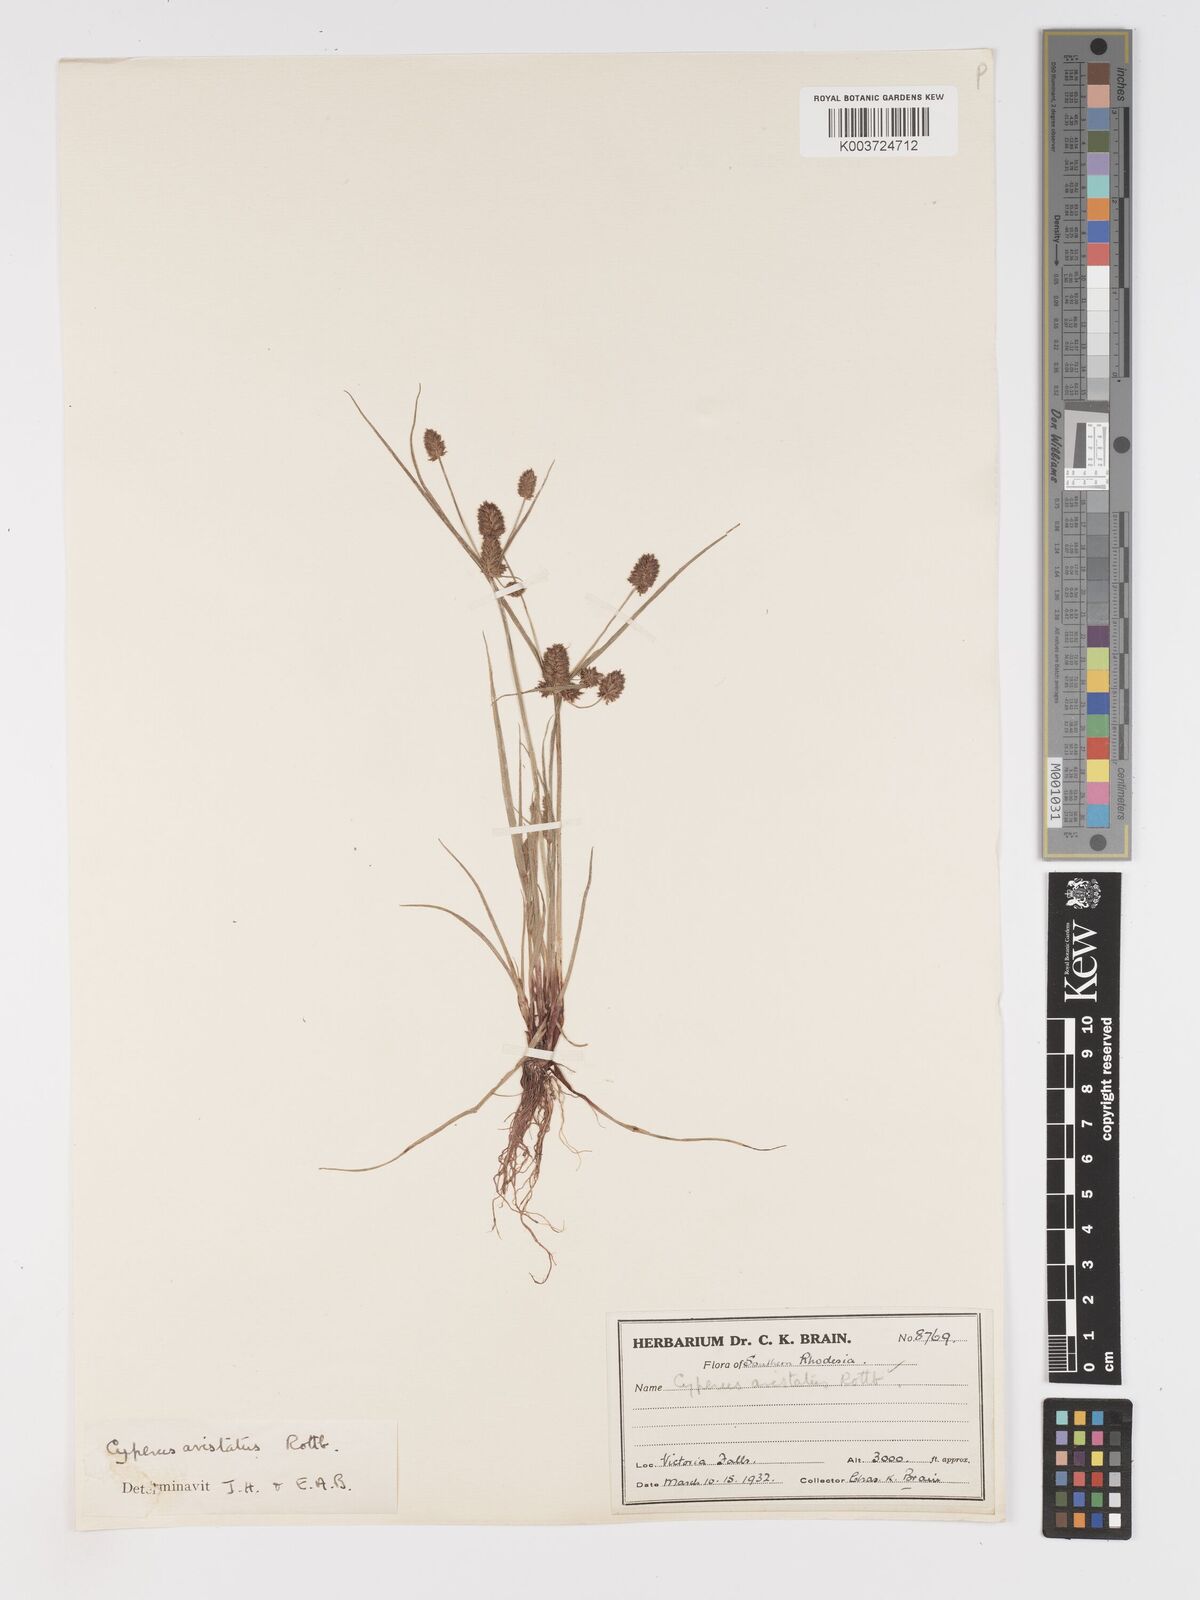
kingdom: Plantae
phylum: Tracheophyta
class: Liliopsida
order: Poales
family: Cyperaceae
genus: Cyperus
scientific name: Cyperus squarrosus
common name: Awned cyperus
